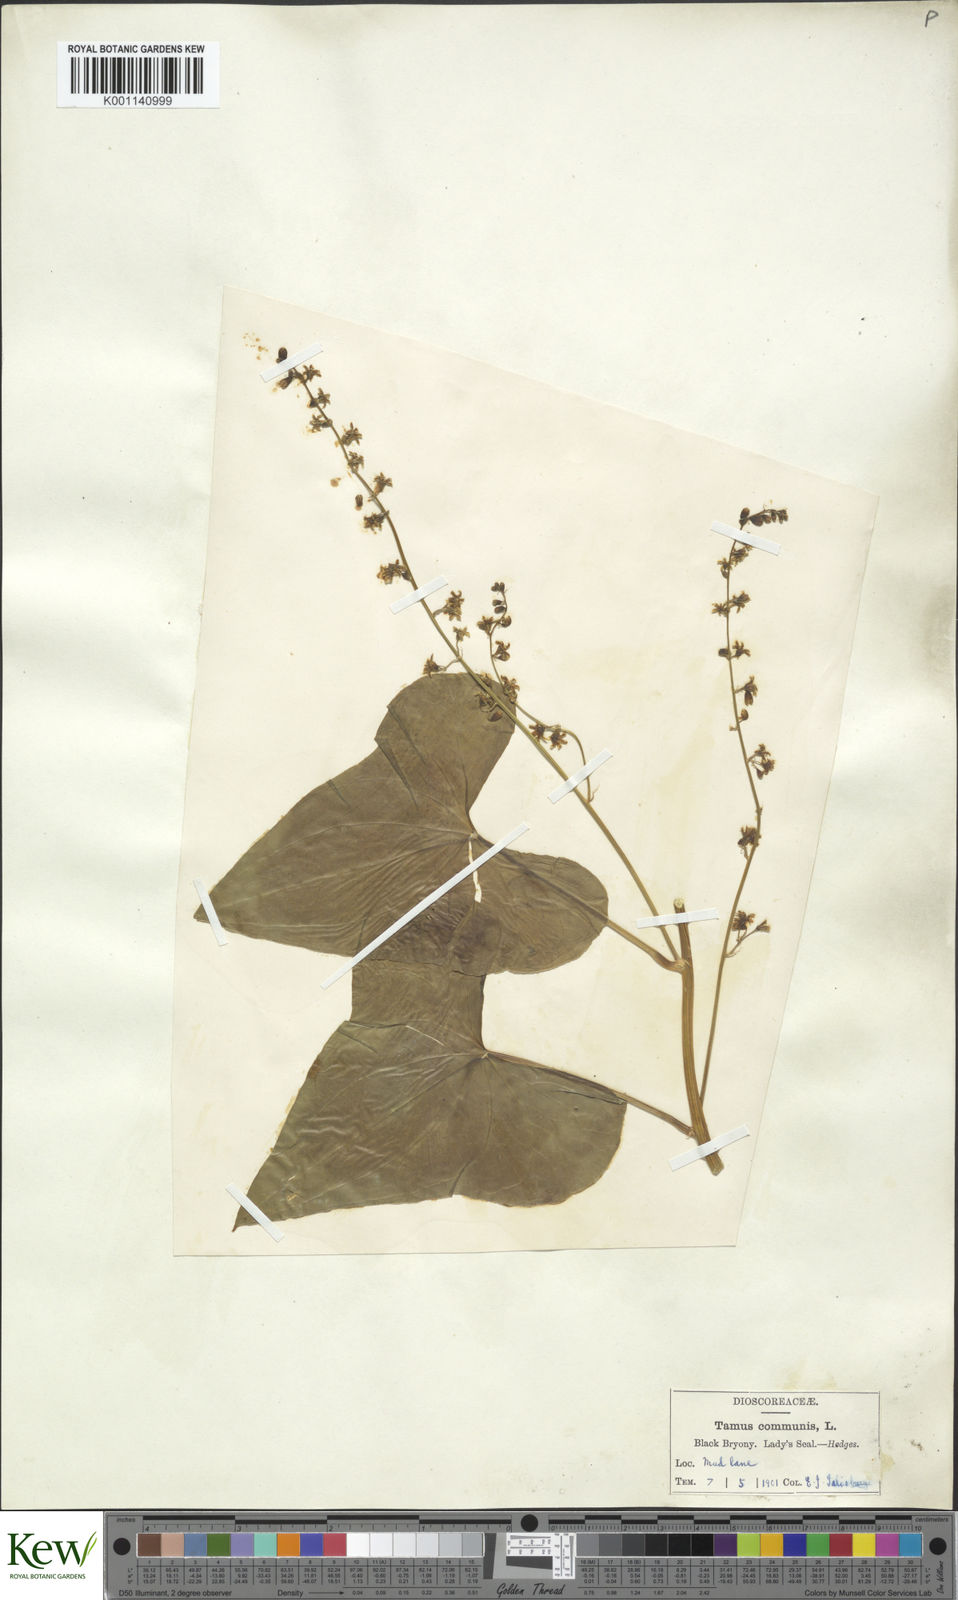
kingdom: Plantae
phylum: Tracheophyta
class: Liliopsida
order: Dioscoreales
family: Dioscoreaceae
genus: Dioscorea
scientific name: Dioscorea communis
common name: Black-bindweed
